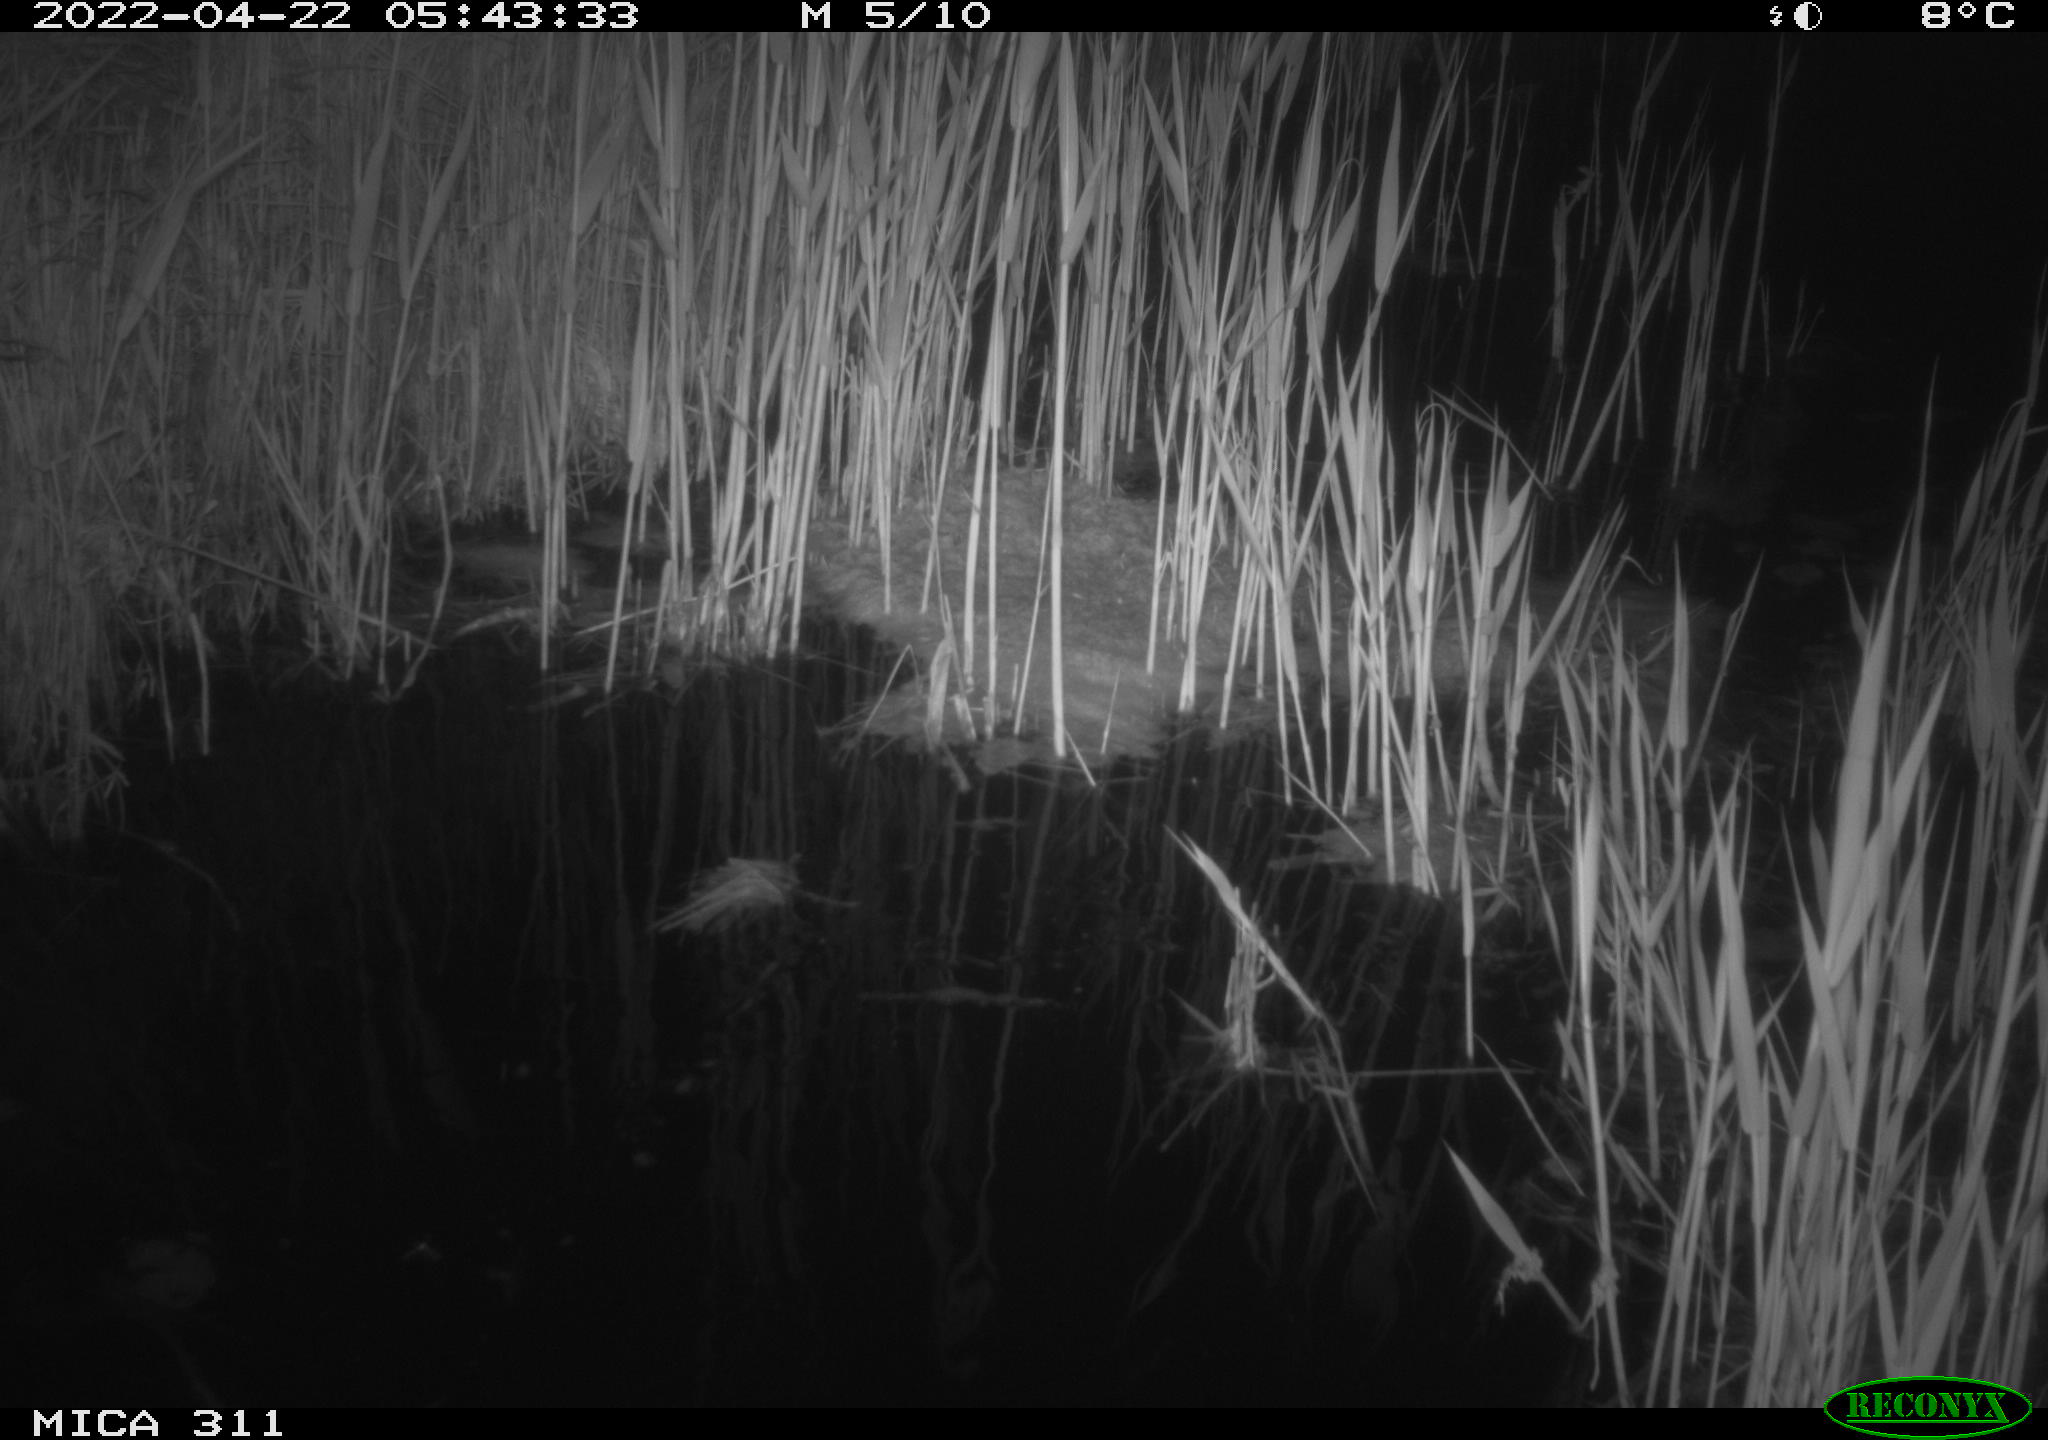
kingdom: Animalia
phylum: Chordata
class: Aves
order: Anseriformes
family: Anatidae
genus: Anas
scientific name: Anas platyrhynchos
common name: Mallard
